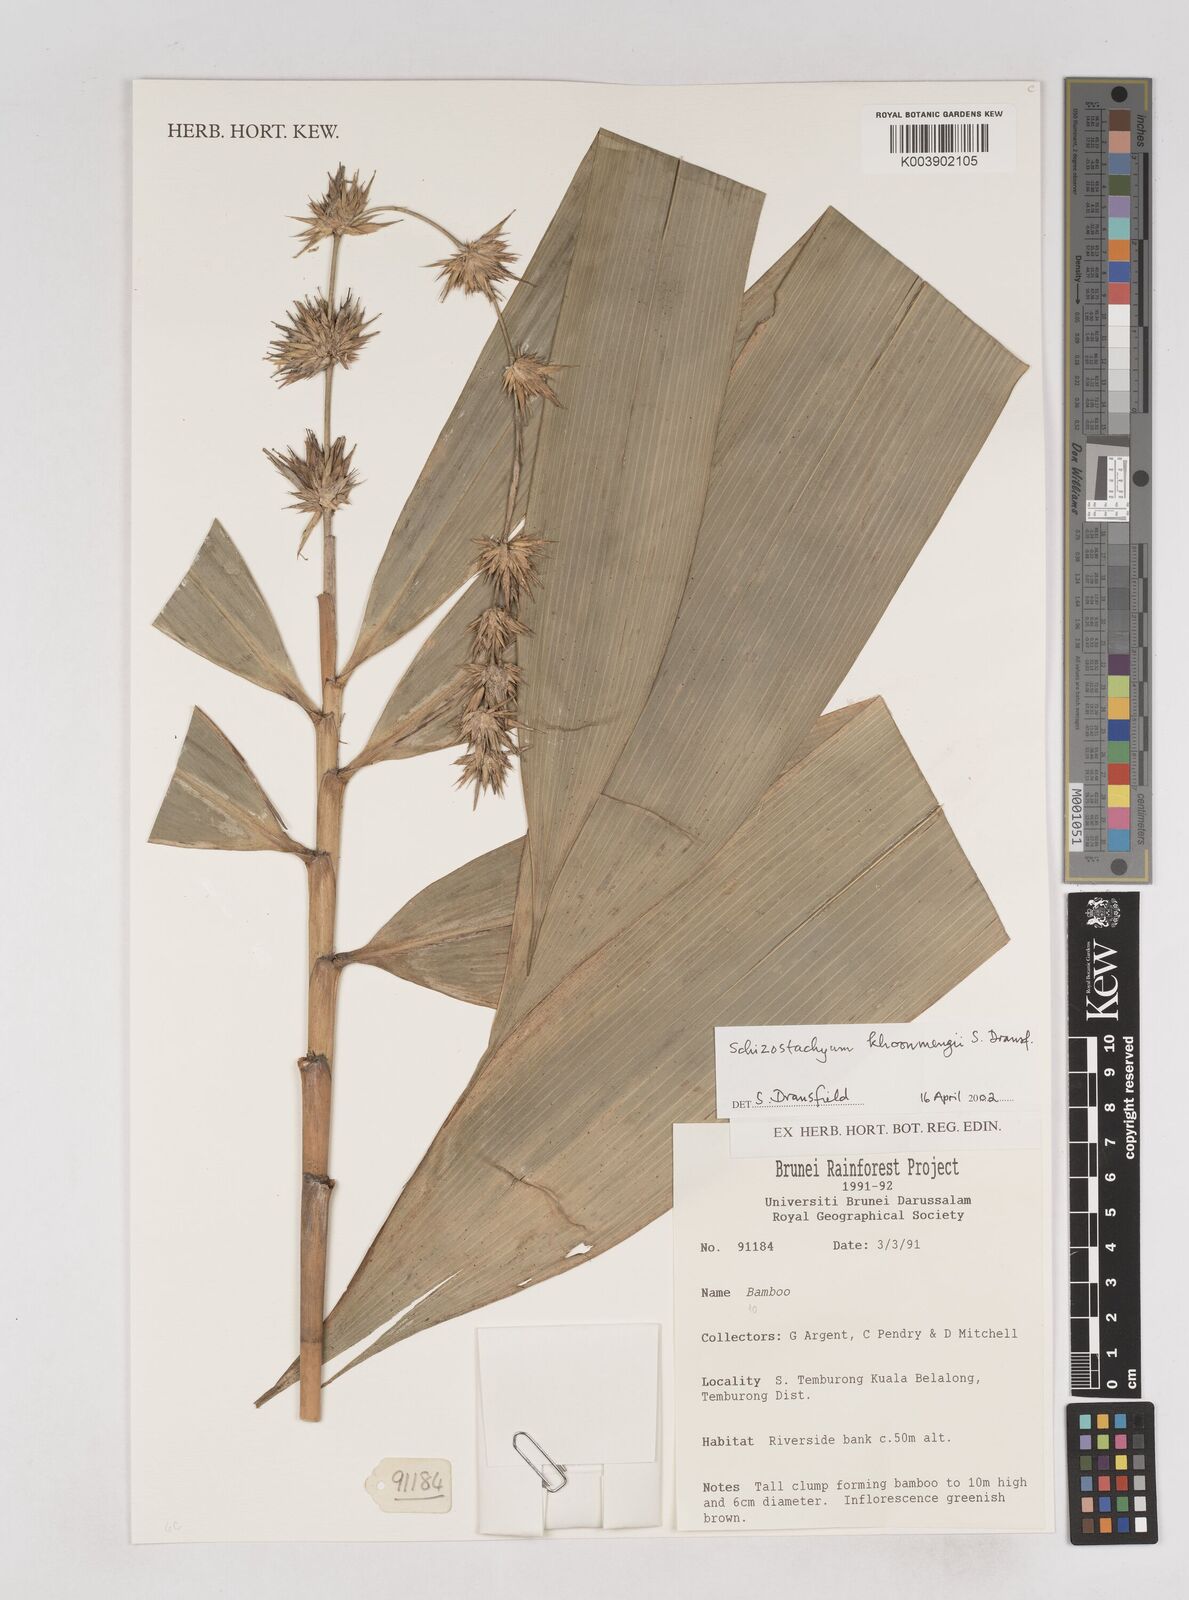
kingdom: Plantae
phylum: Tracheophyta
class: Liliopsida
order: Poales
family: Poaceae
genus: Schizostachyum
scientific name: Schizostachyum khoonmengii
